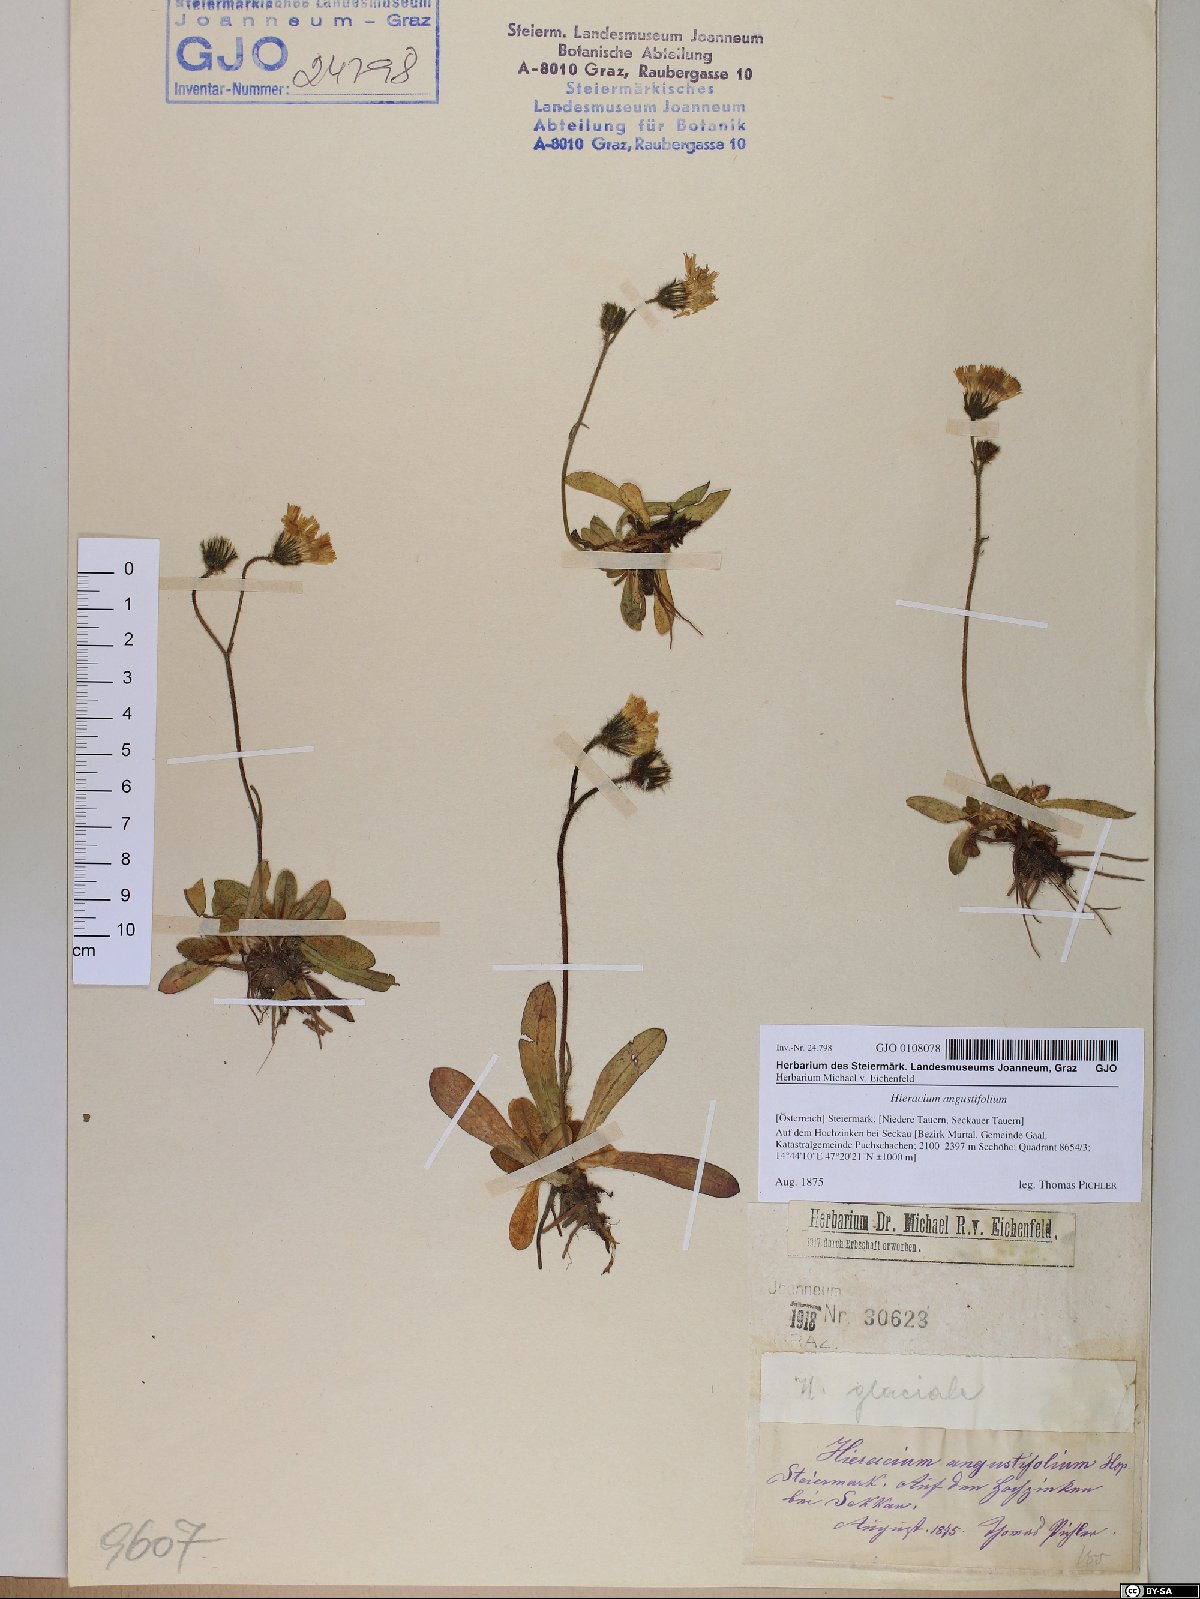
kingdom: Plantae
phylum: Tracheophyta
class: Magnoliopsida
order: Asterales
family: Asteraceae
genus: Pilosella
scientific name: Pilosella glacialis
